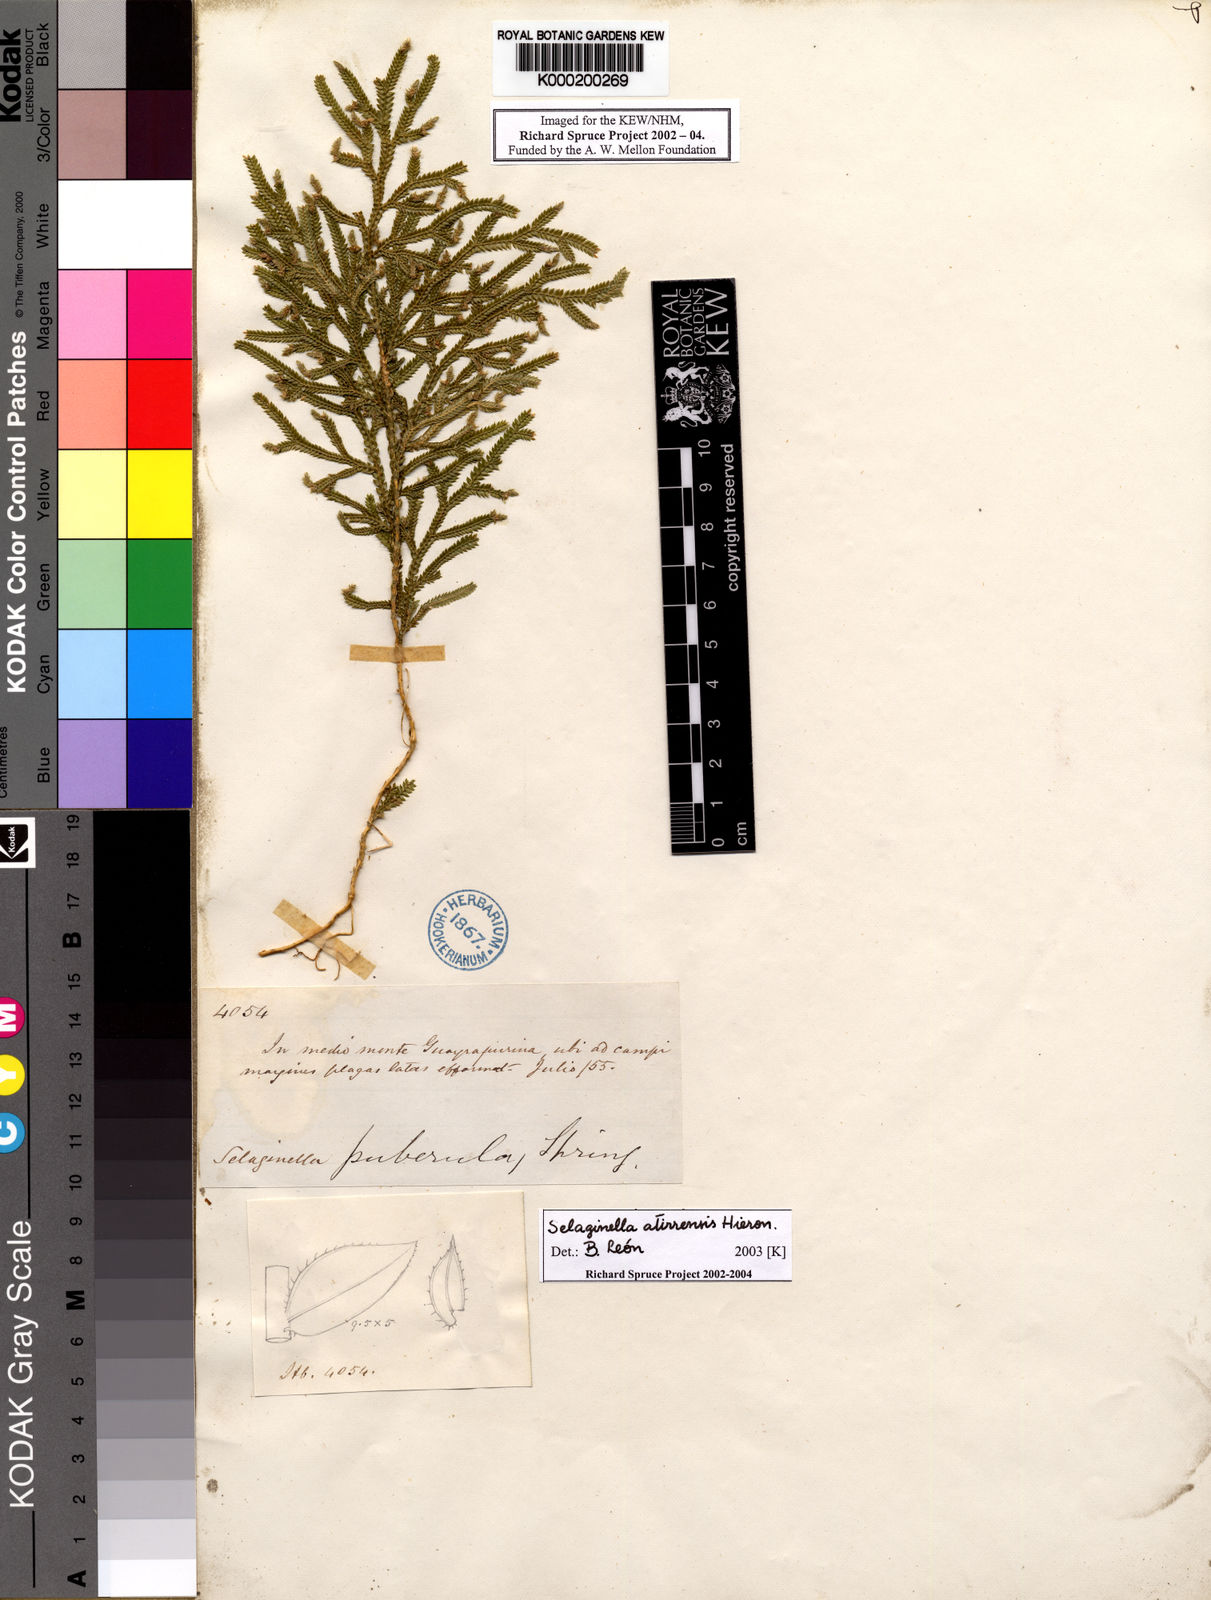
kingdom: Plantae
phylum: Tracheophyta
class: Lycopodiopsida
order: Selaginellales
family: Selaginellaceae
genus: Selaginella
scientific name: Selaginella atirrensis
